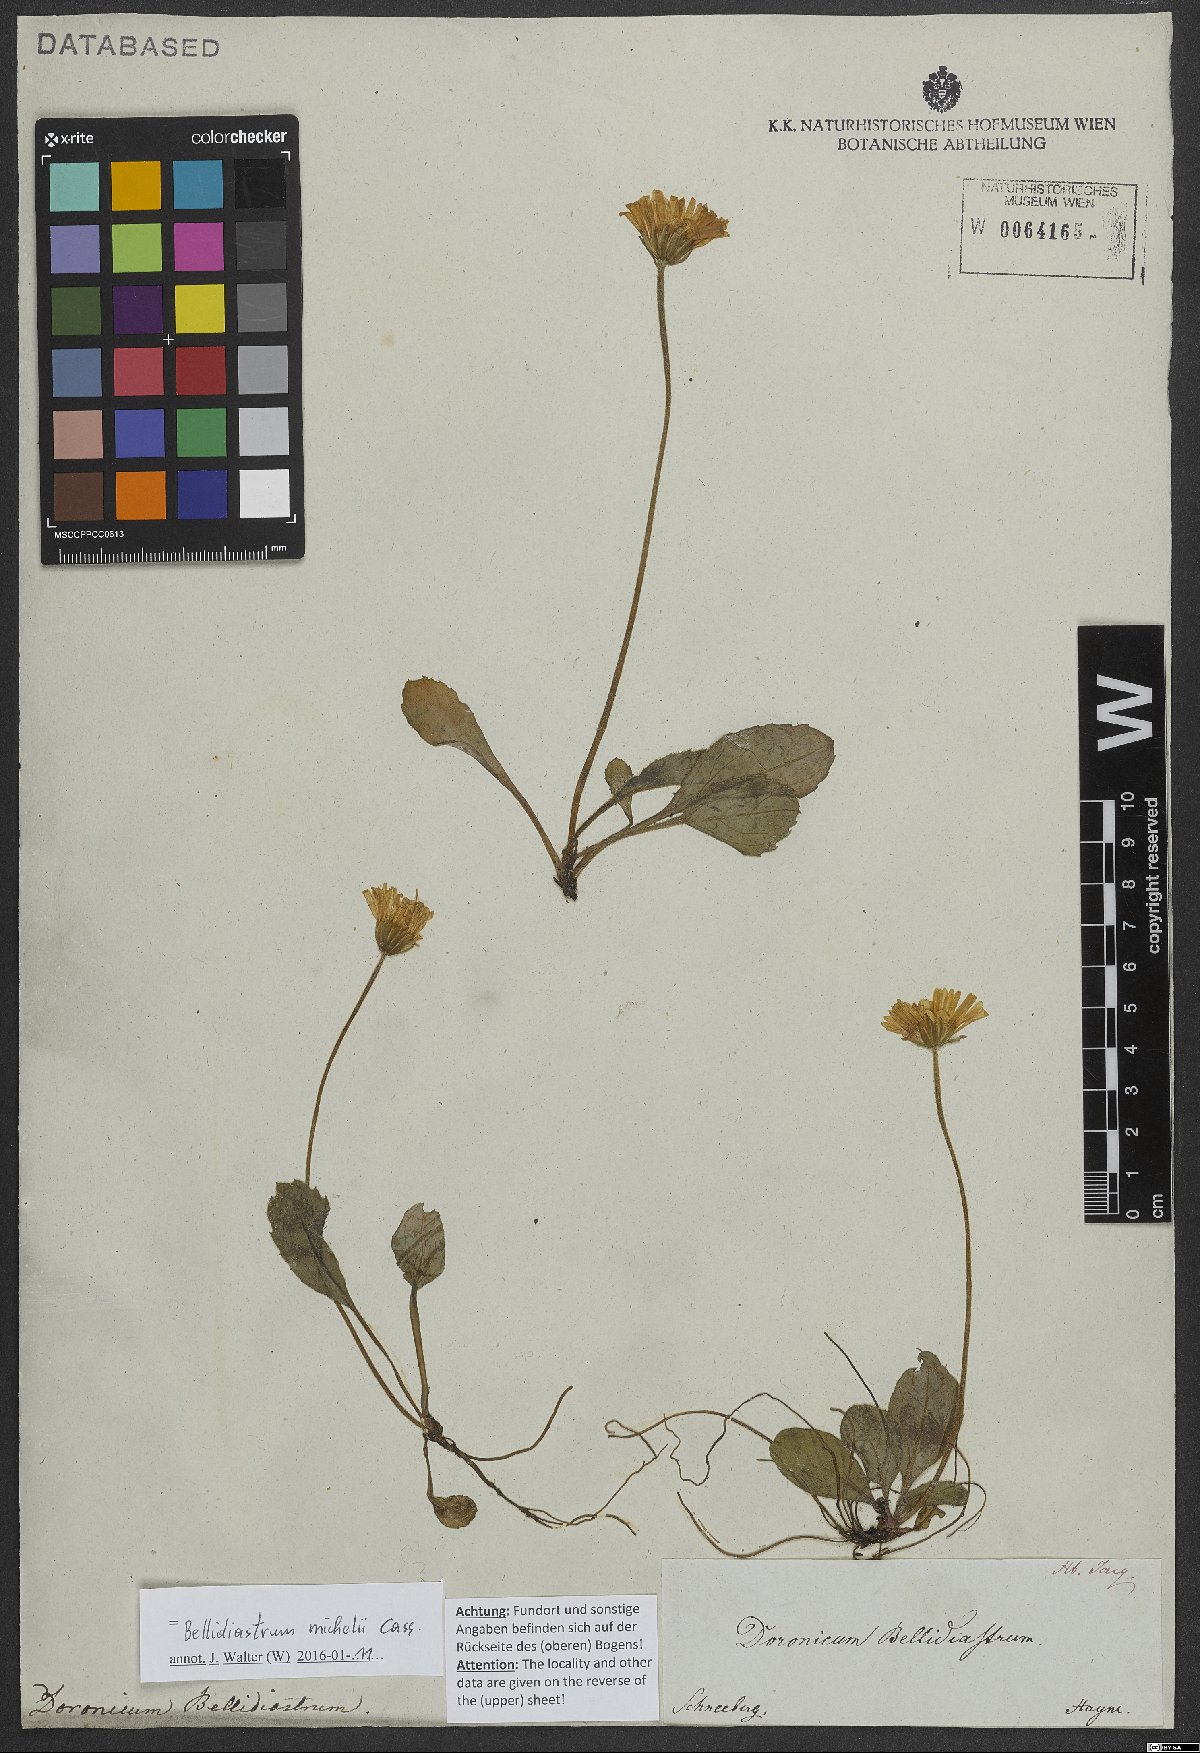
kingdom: Plantae
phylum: Tracheophyta
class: Magnoliopsida
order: Asterales
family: Asteraceae
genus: Bellidiastrum
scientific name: Bellidiastrum michelii
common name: Daisy-star aster
